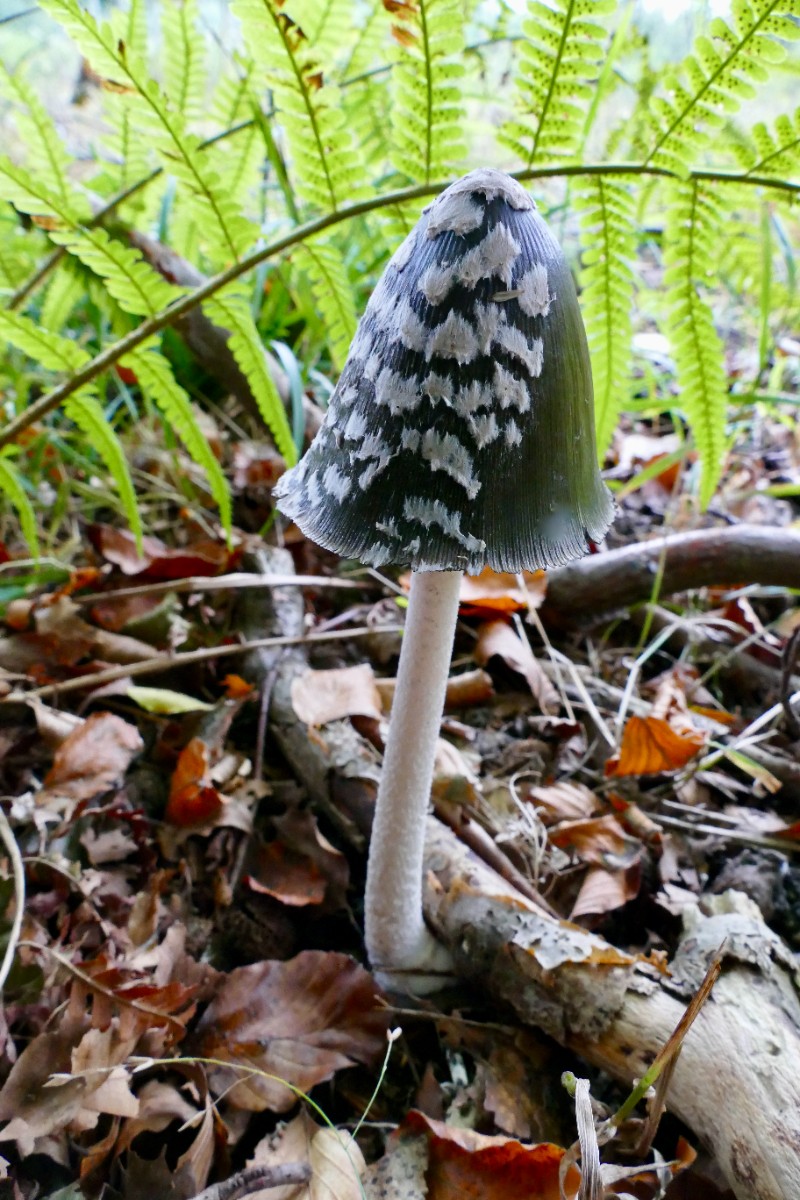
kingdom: Fungi
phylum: Basidiomycota
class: Agaricomycetes
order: Agaricales
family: Psathyrellaceae
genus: Coprinopsis
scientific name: Coprinopsis picacea
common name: skade-blækhat
